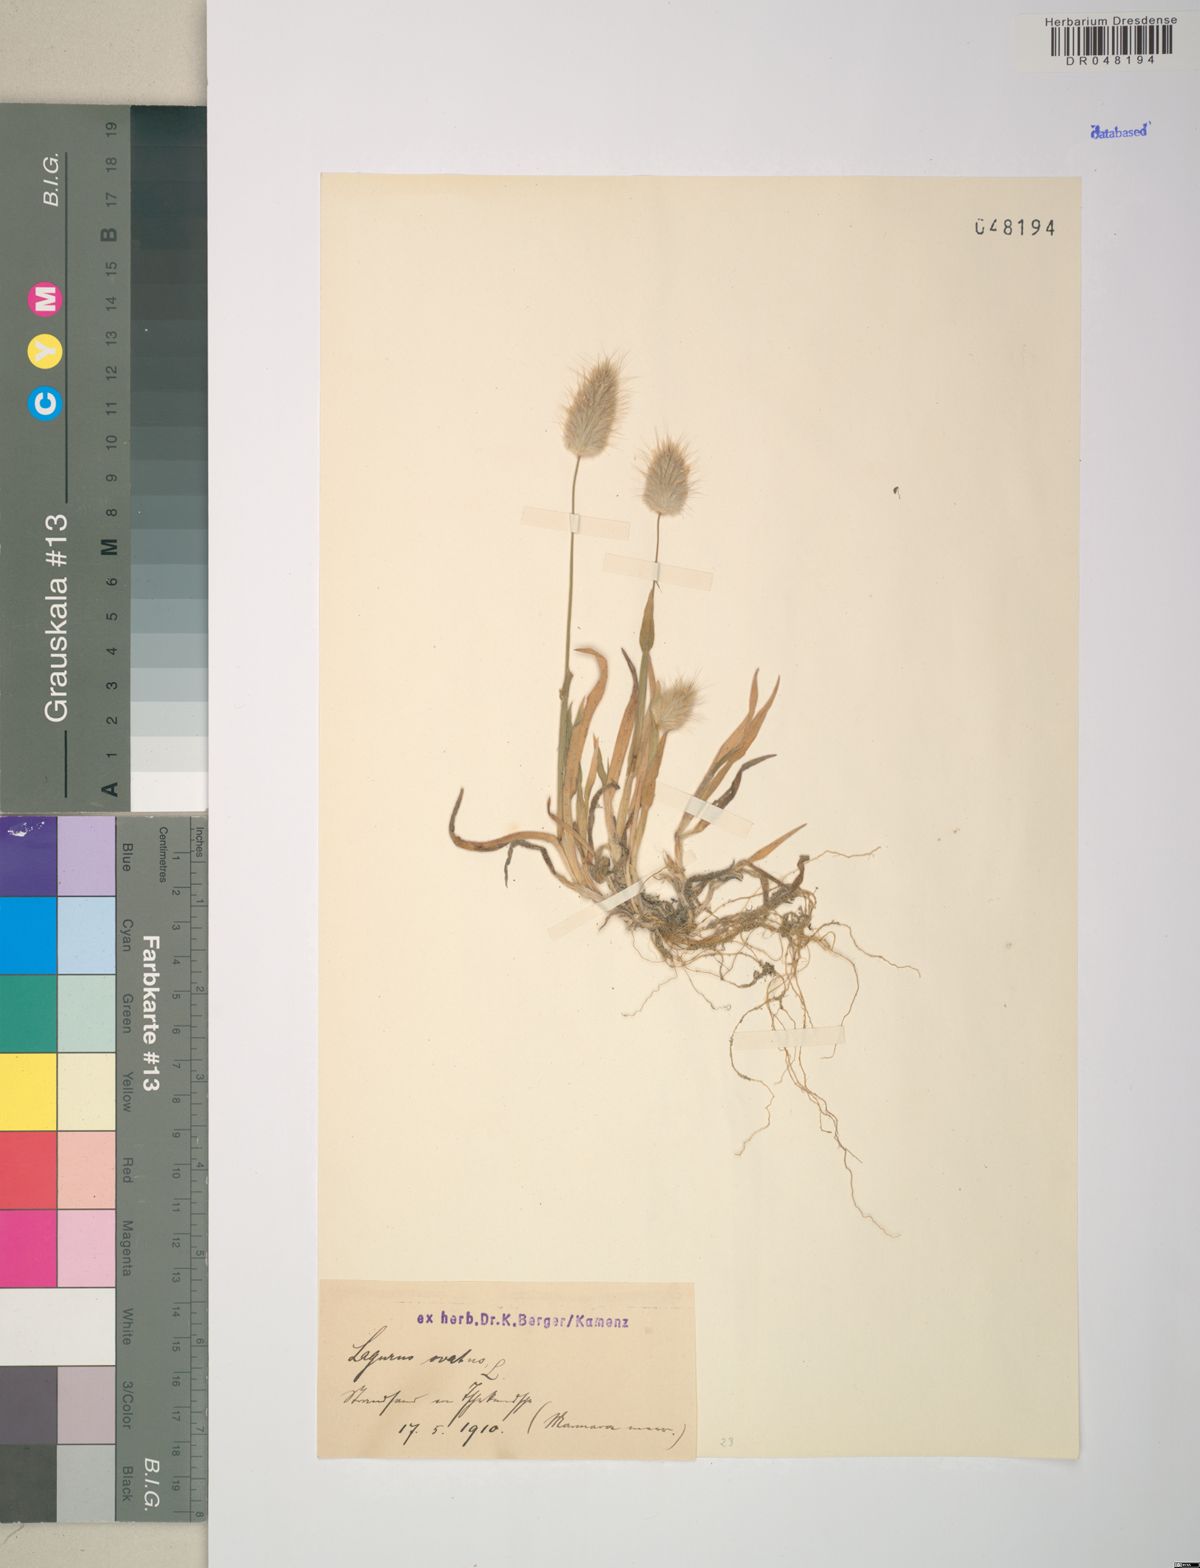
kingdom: Plantae
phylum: Tracheophyta
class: Liliopsida
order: Poales
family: Poaceae
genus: Lagurus
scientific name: Lagurus ovatus
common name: Hare's-tail
